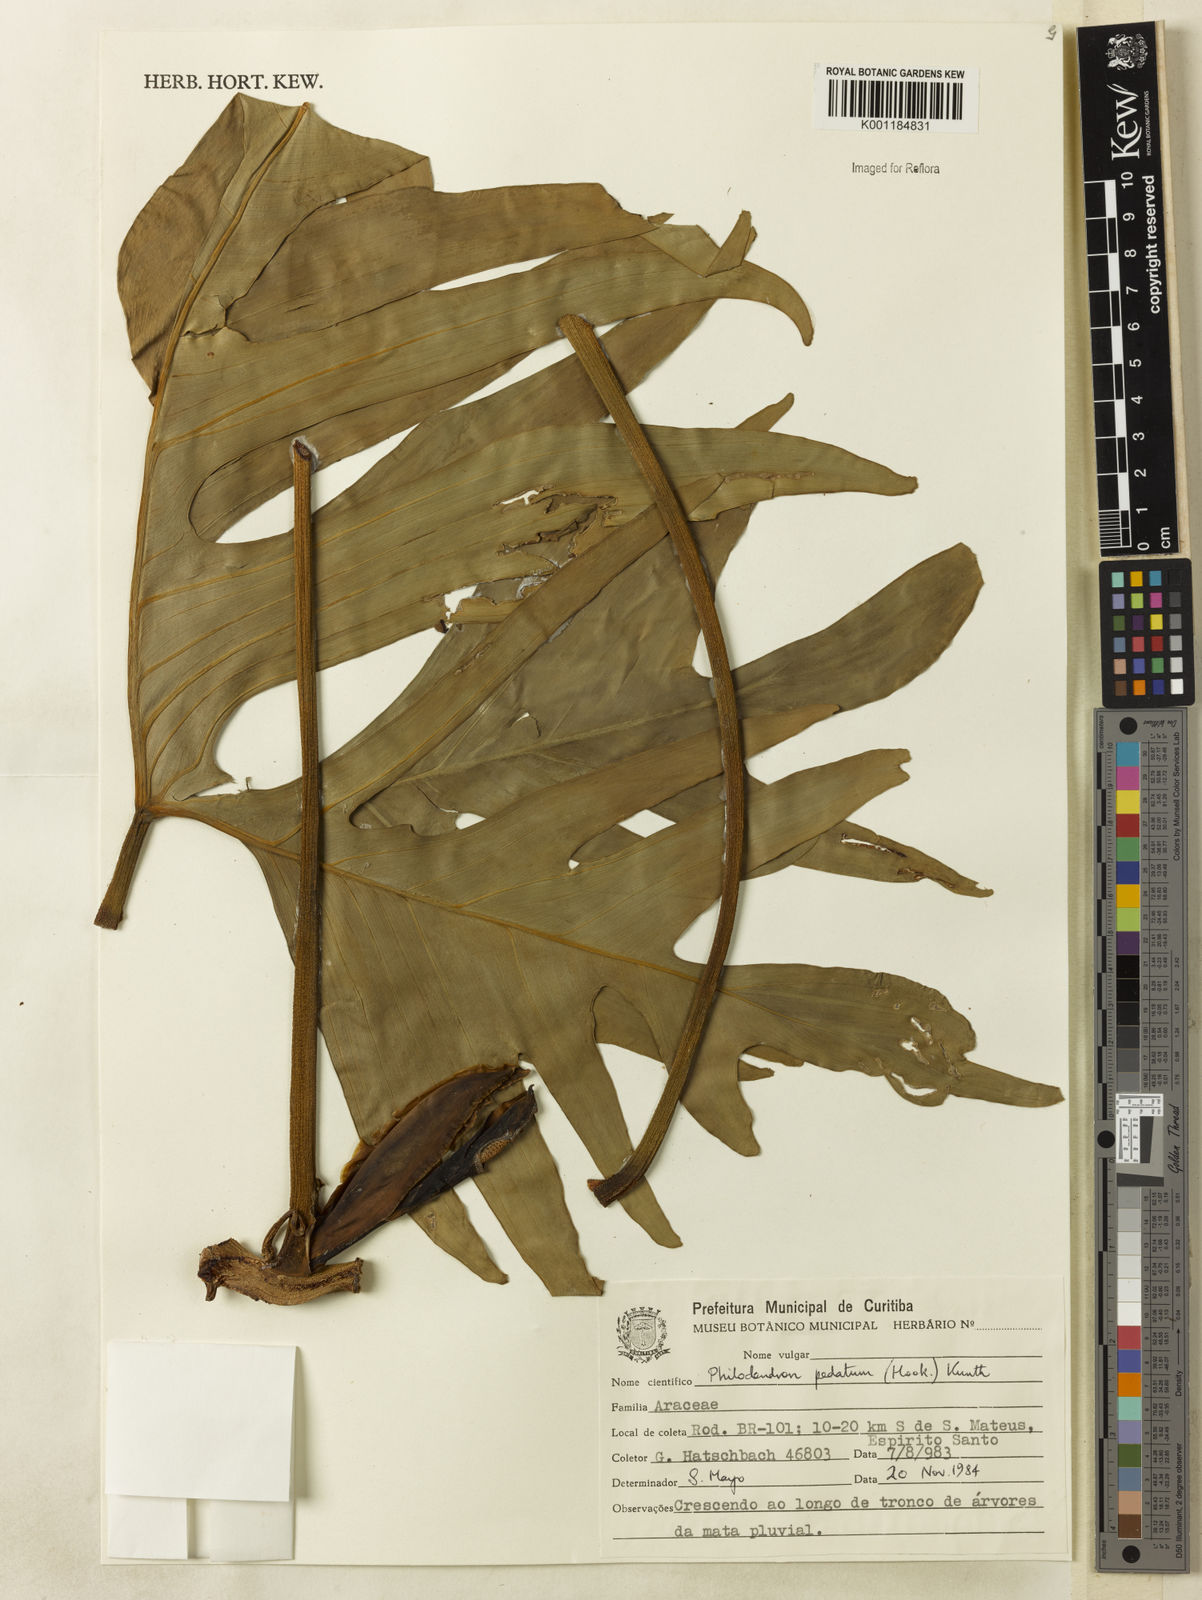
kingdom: Plantae
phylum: Tracheophyta
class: Liliopsida
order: Alismatales
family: Araceae
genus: Philodendron
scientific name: Philodendron pedatum
